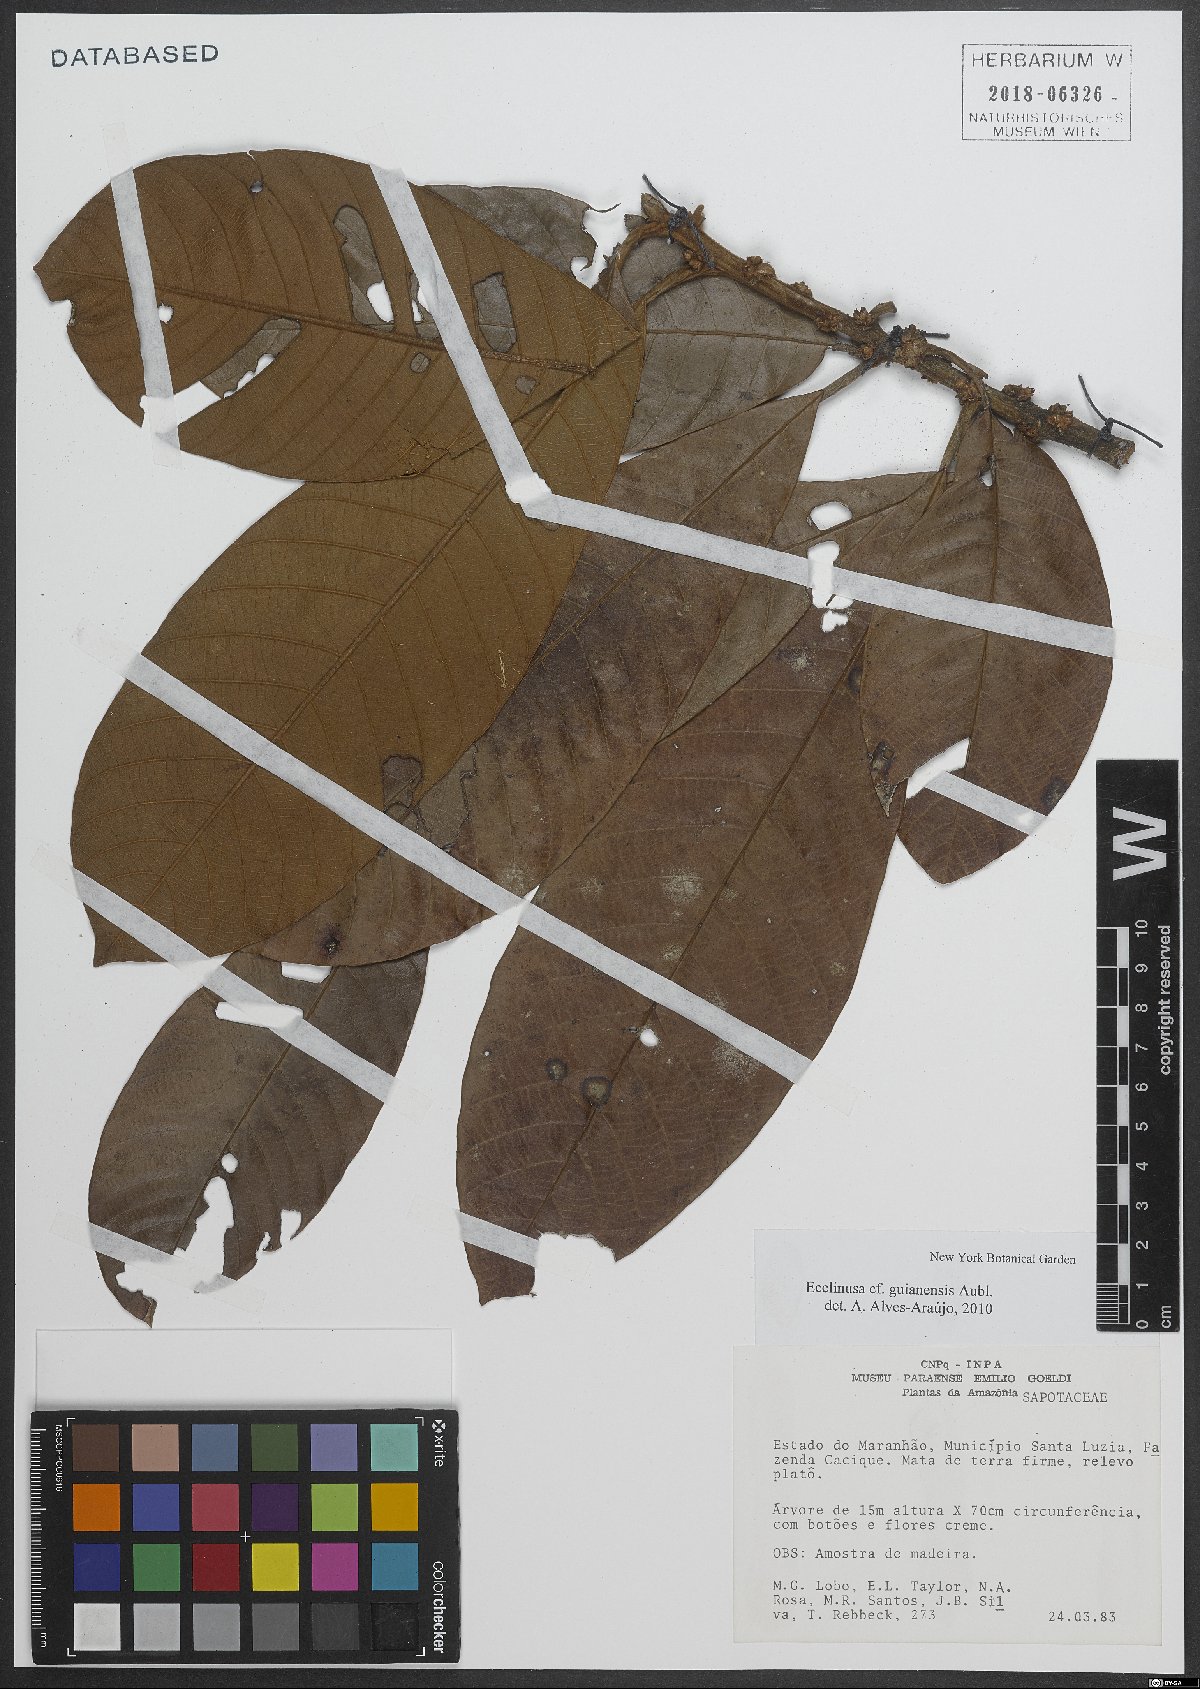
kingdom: Plantae
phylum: Tracheophyta
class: Magnoliopsida
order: Ericales
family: Sapotaceae
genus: Ecclinusa
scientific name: Ecclinusa guianensis
